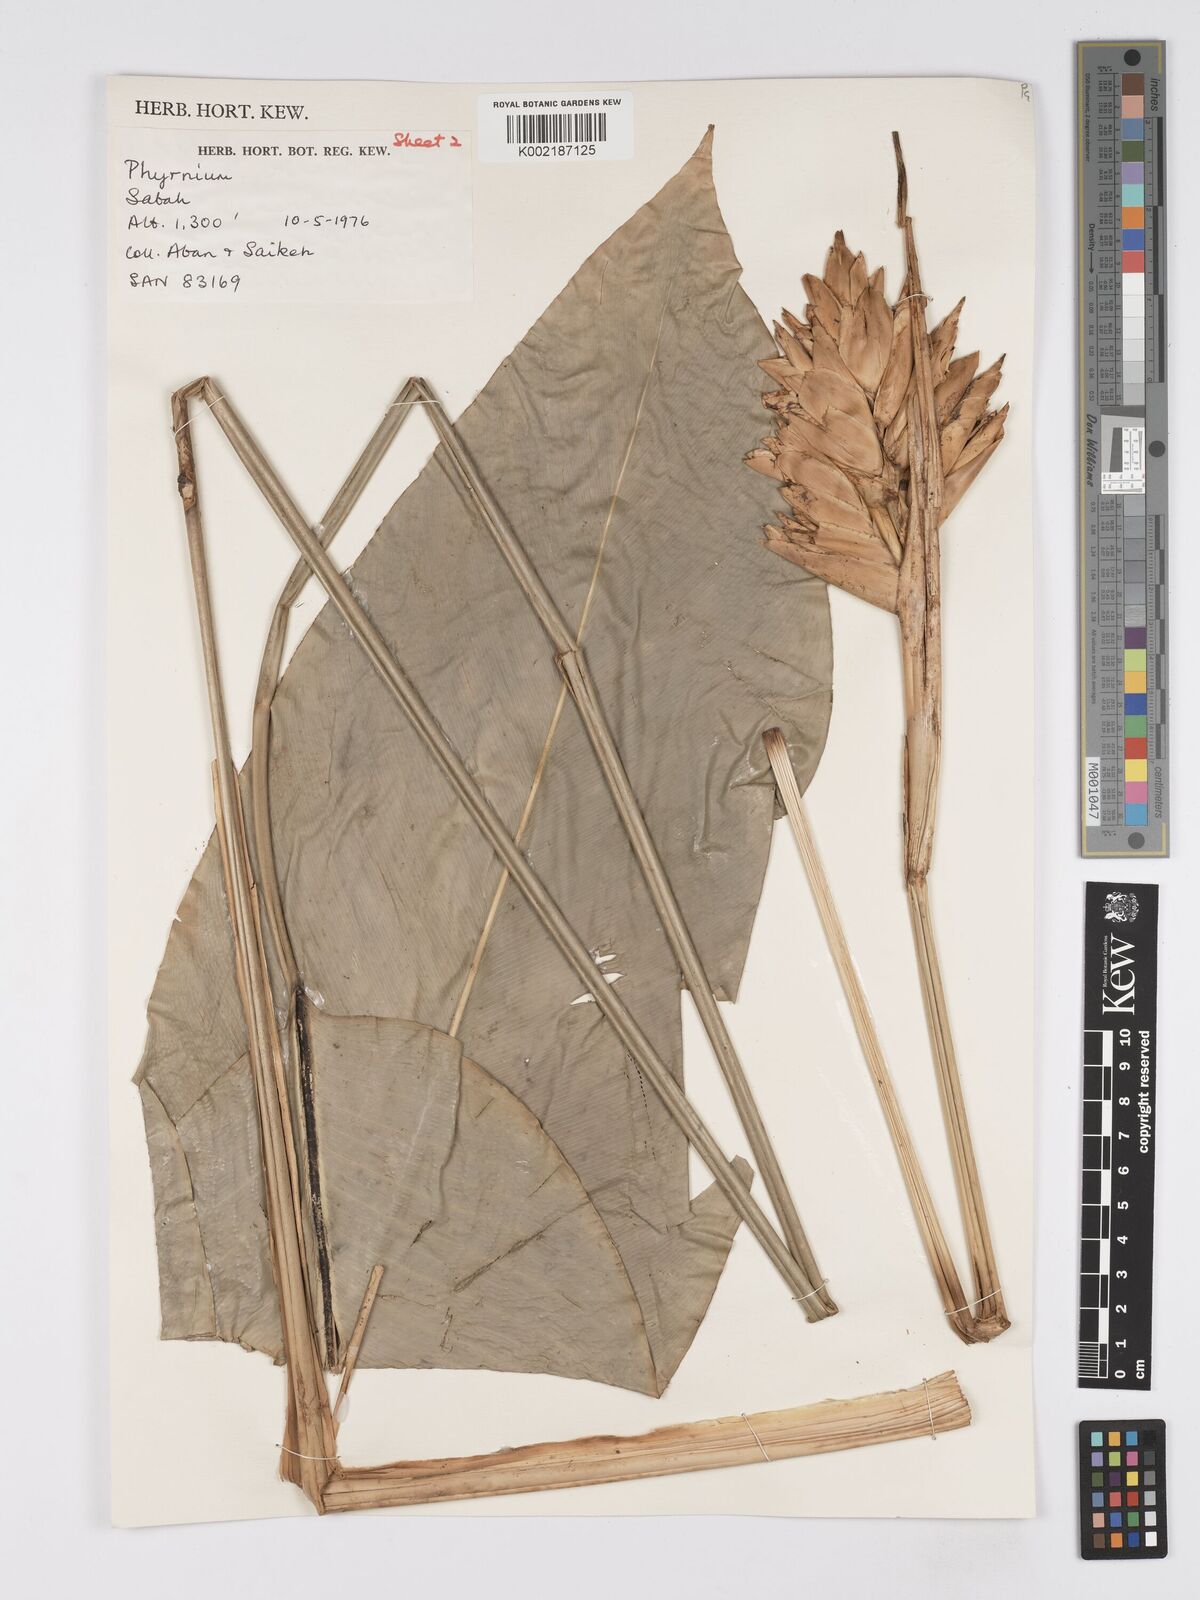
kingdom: Plantae
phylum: Tracheophyta
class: Liliopsida
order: Zingiberales
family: Marantaceae
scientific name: Marantaceae
